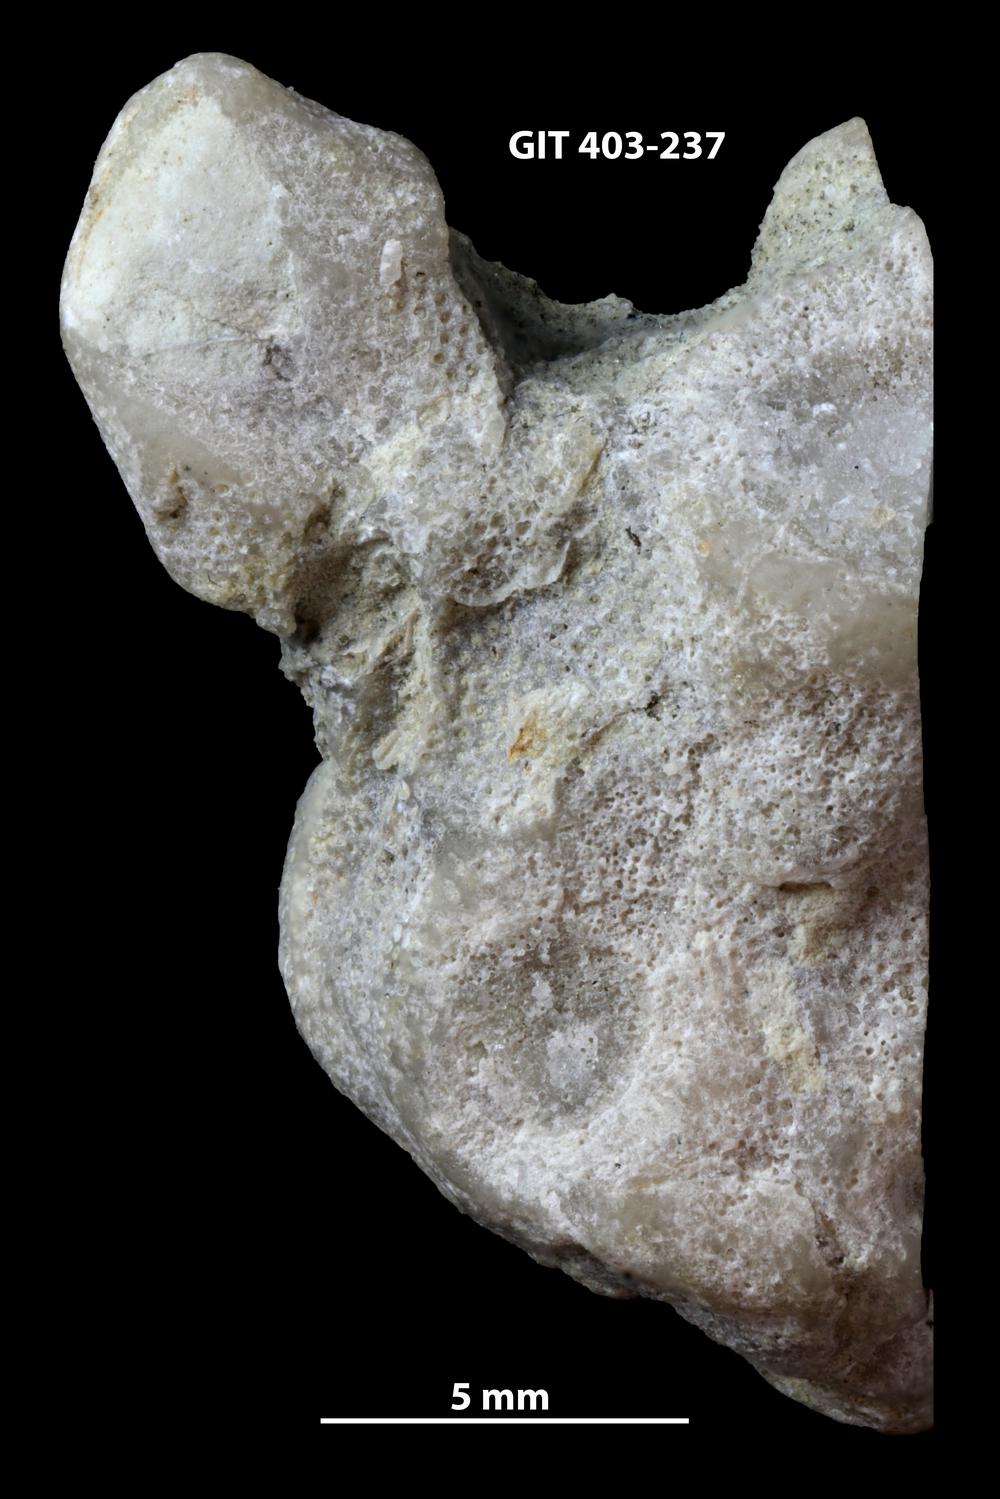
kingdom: Animalia
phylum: Bryozoa
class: Stenolaemata
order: Cystoporida
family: Fistuliporidae
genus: Fistulipora
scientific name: Fistulipora przhidolensis
